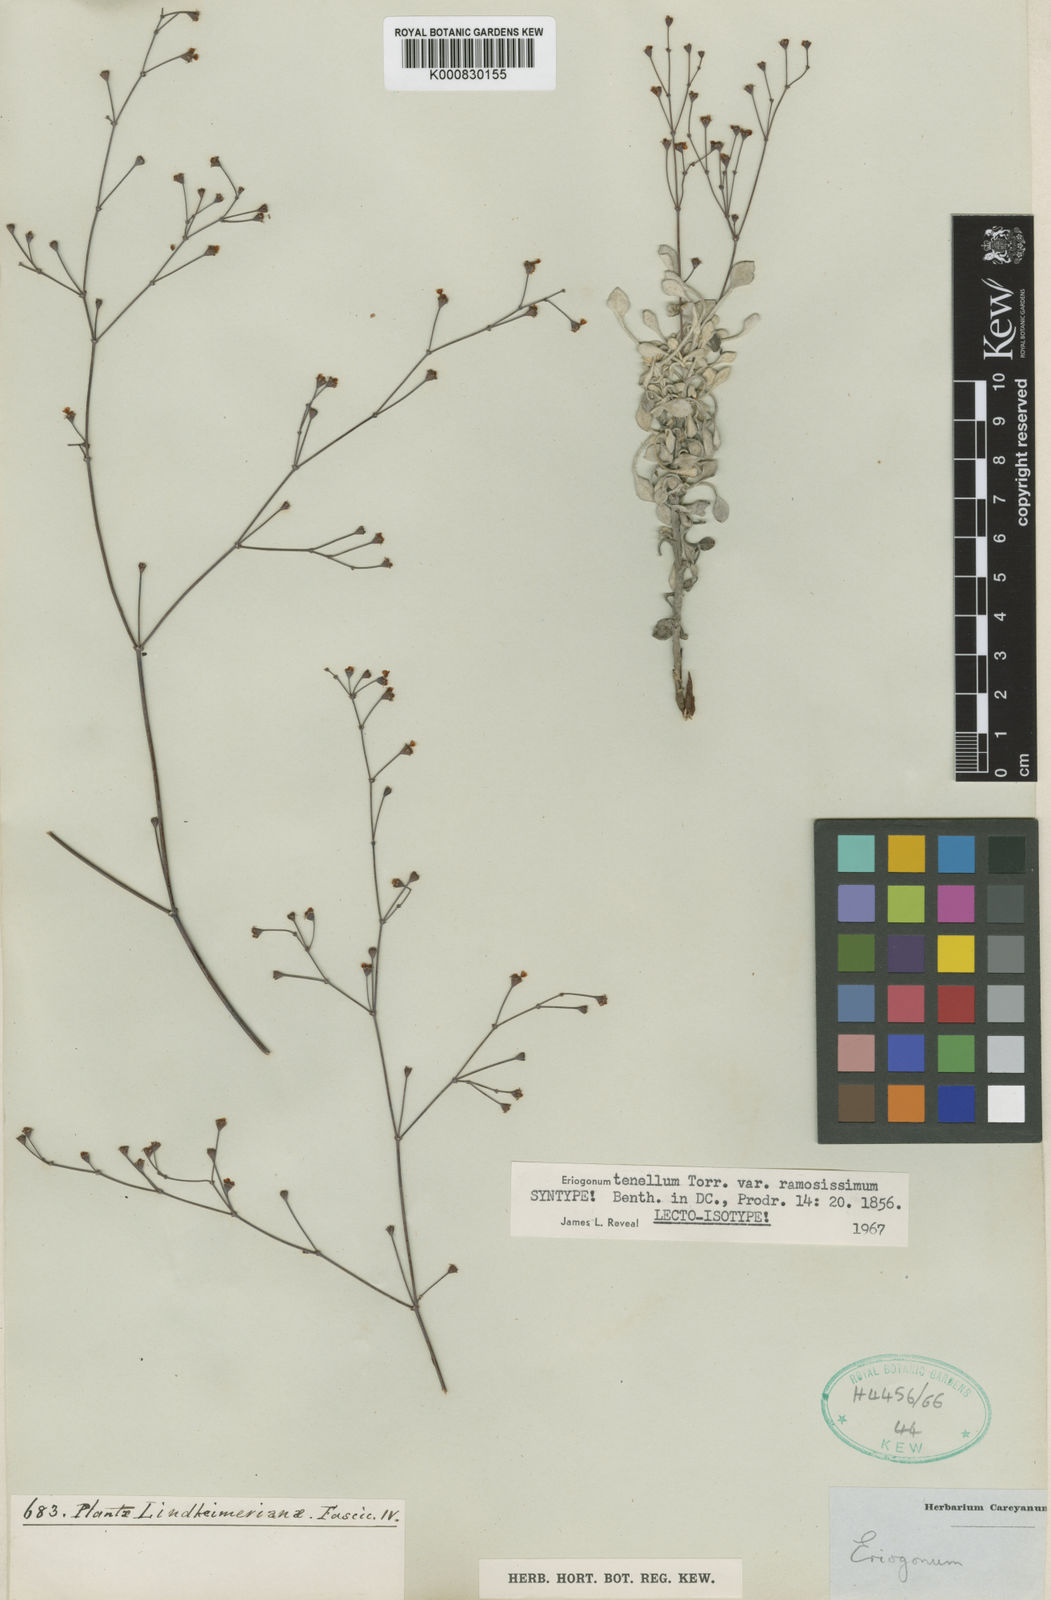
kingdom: Plantae
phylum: Tracheophyta
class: Magnoliopsida
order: Caryophyllales
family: Polygonaceae
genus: Eriogonum
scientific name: Eriogonum graniticum
